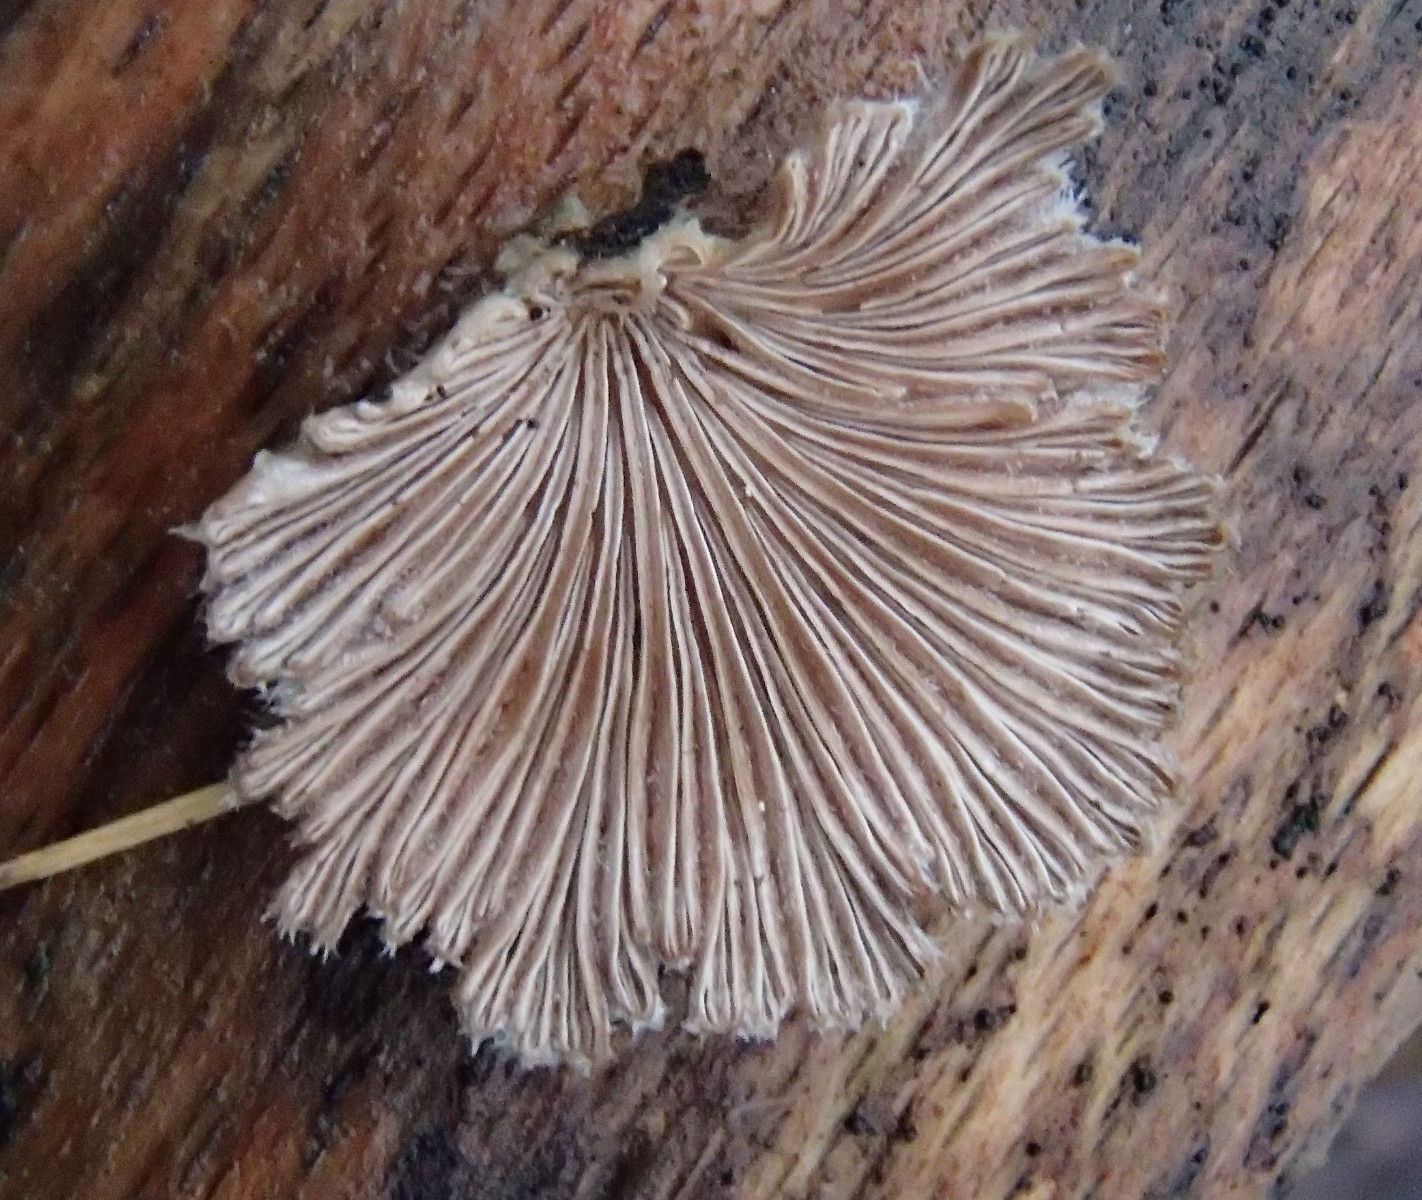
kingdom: Fungi
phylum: Basidiomycota
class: Agaricomycetes
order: Agaricales
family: Schizophyllaceae
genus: Schizophyllum
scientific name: Schizophyllum commune
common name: kløvblad
